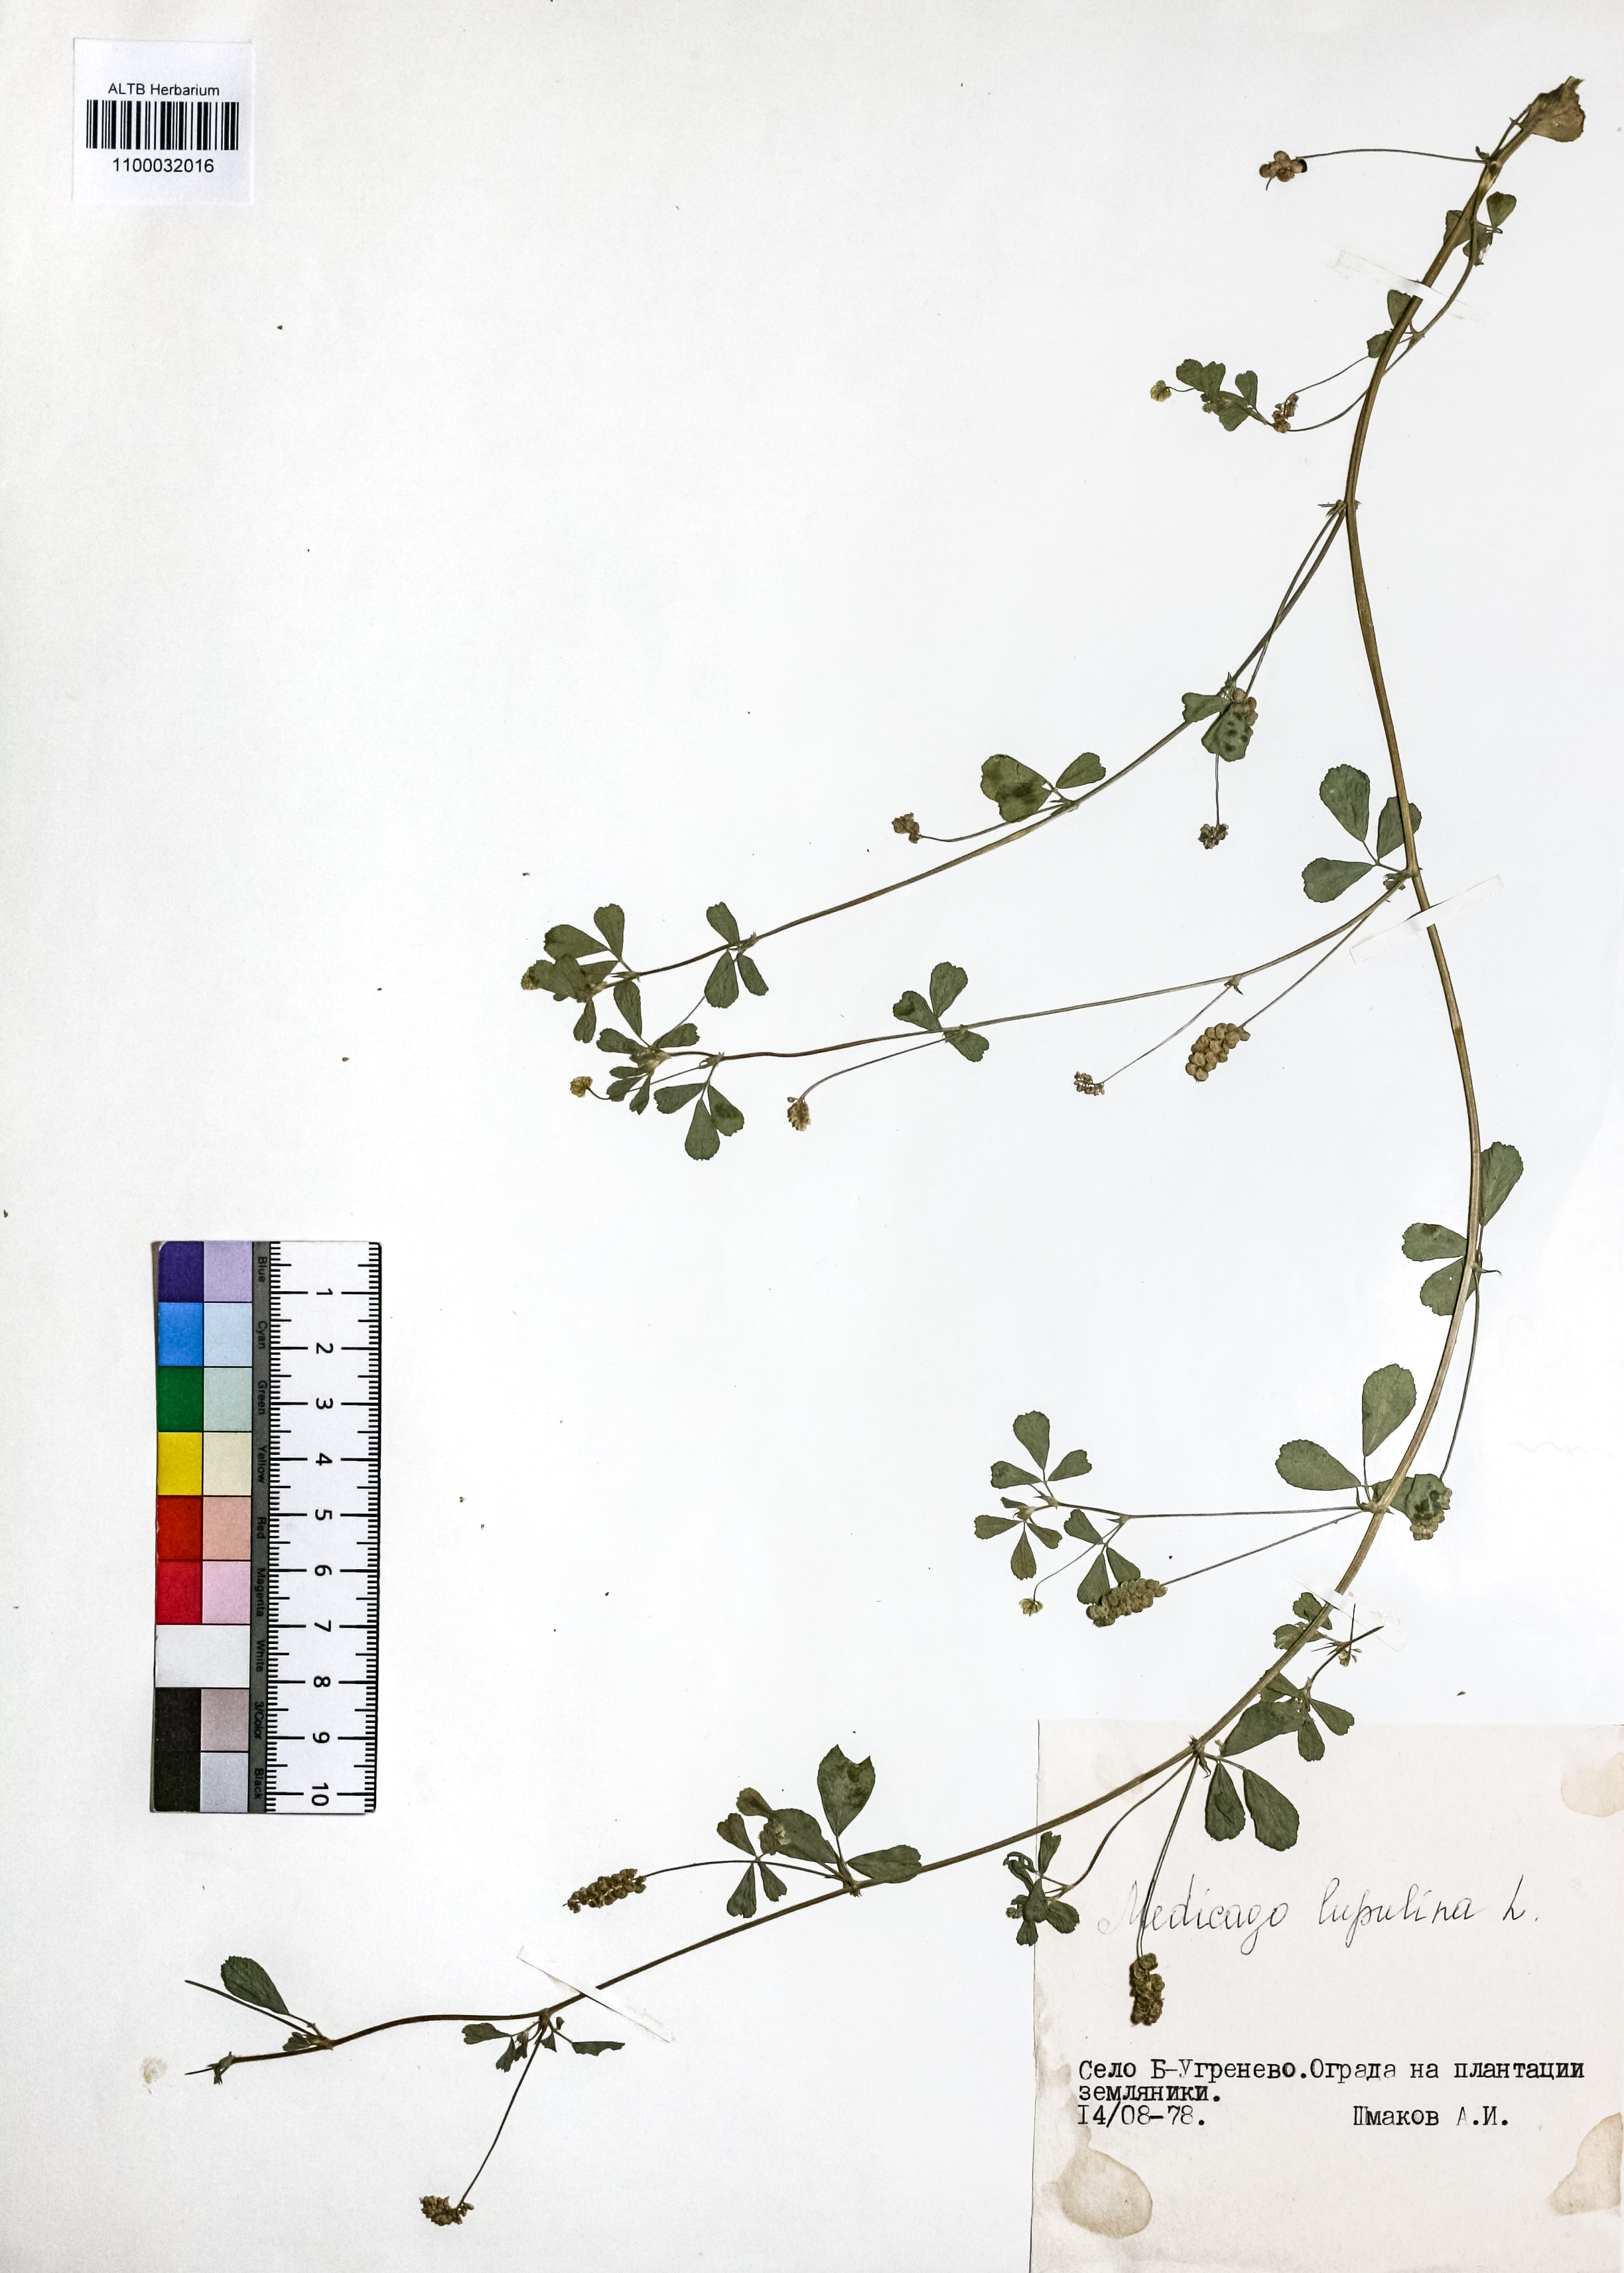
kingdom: Plantae
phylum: Tracheophyta
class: Magnoliopsida
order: Fabales
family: Fabaceae
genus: Medicago
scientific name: Medicago lupulina
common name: Black medick
